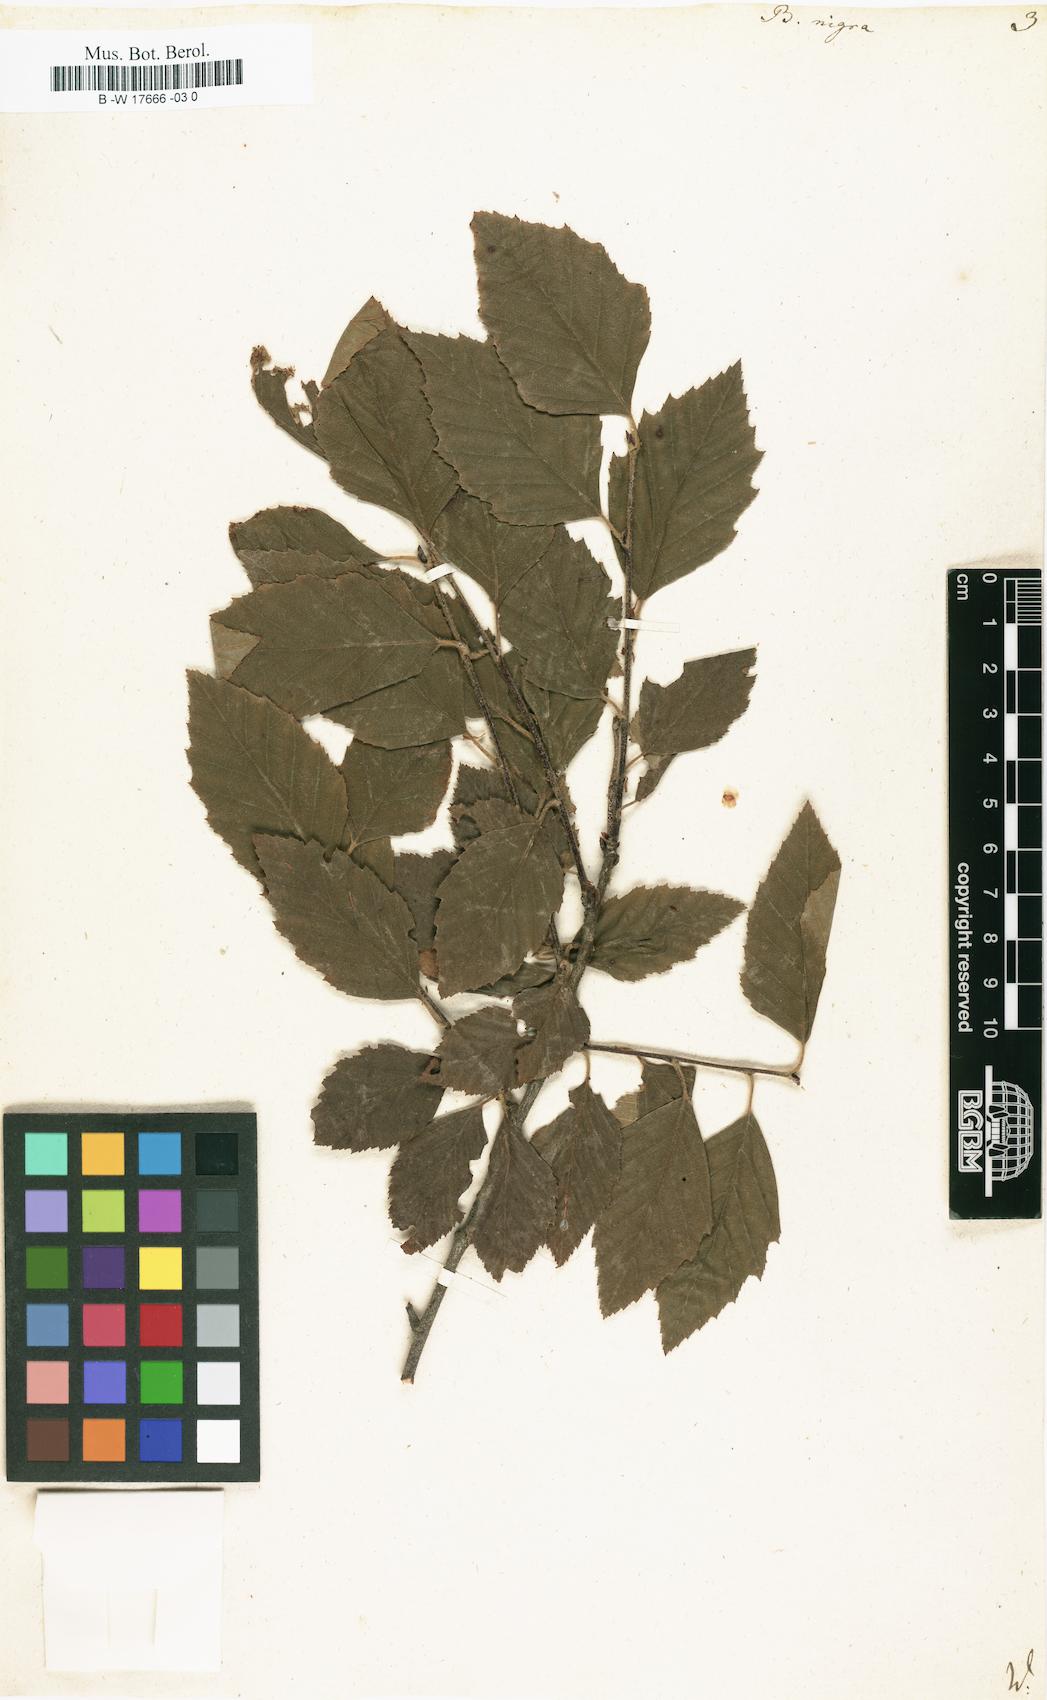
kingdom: Plantae
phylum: Tracheophyta
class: Magnoliopsida
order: Fagales
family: Betulaceae
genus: Betula
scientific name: Betula nigra
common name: Black birch
